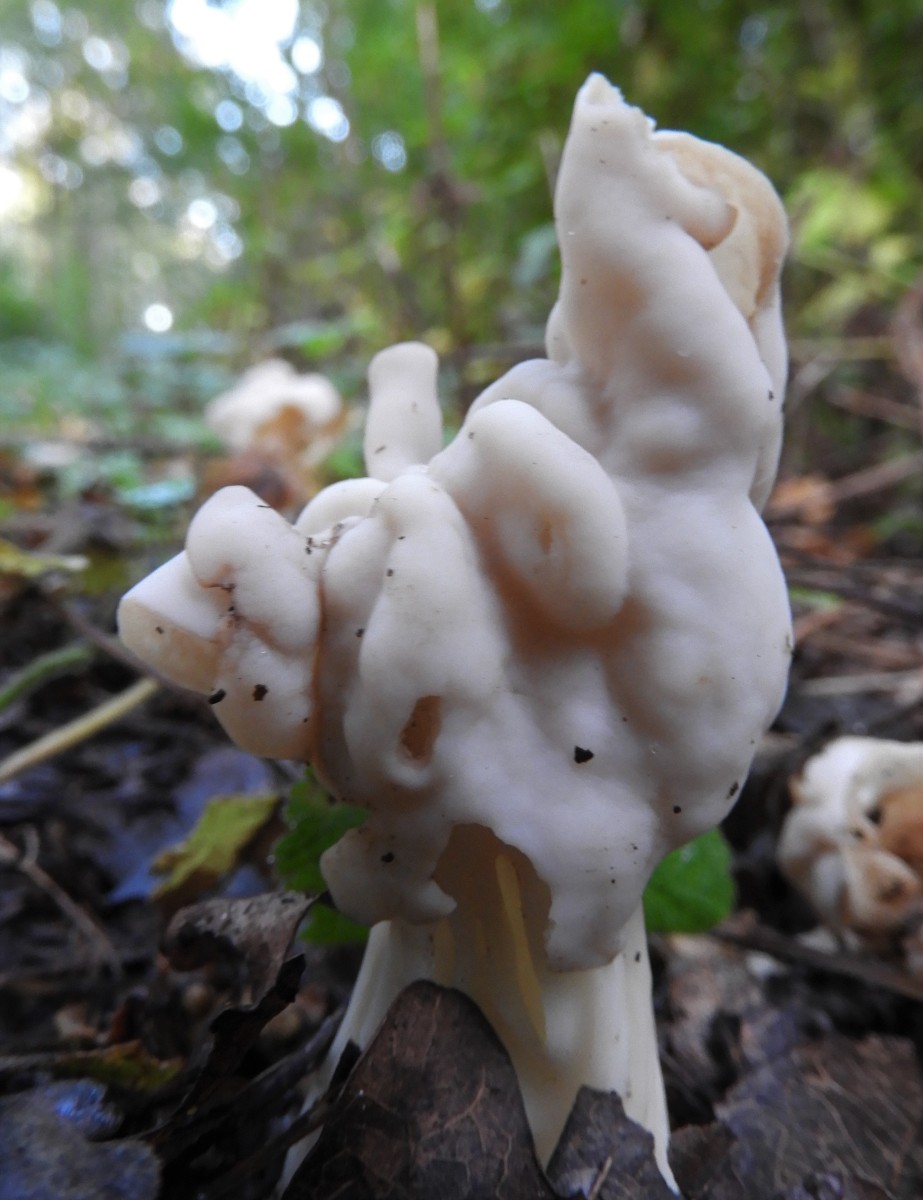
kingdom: Fungi
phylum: Ascomycota
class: Pezizomycetes
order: Pezizales
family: Helvellaceae
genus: Helvella
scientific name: Helvella crispa
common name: kruset foldhat
